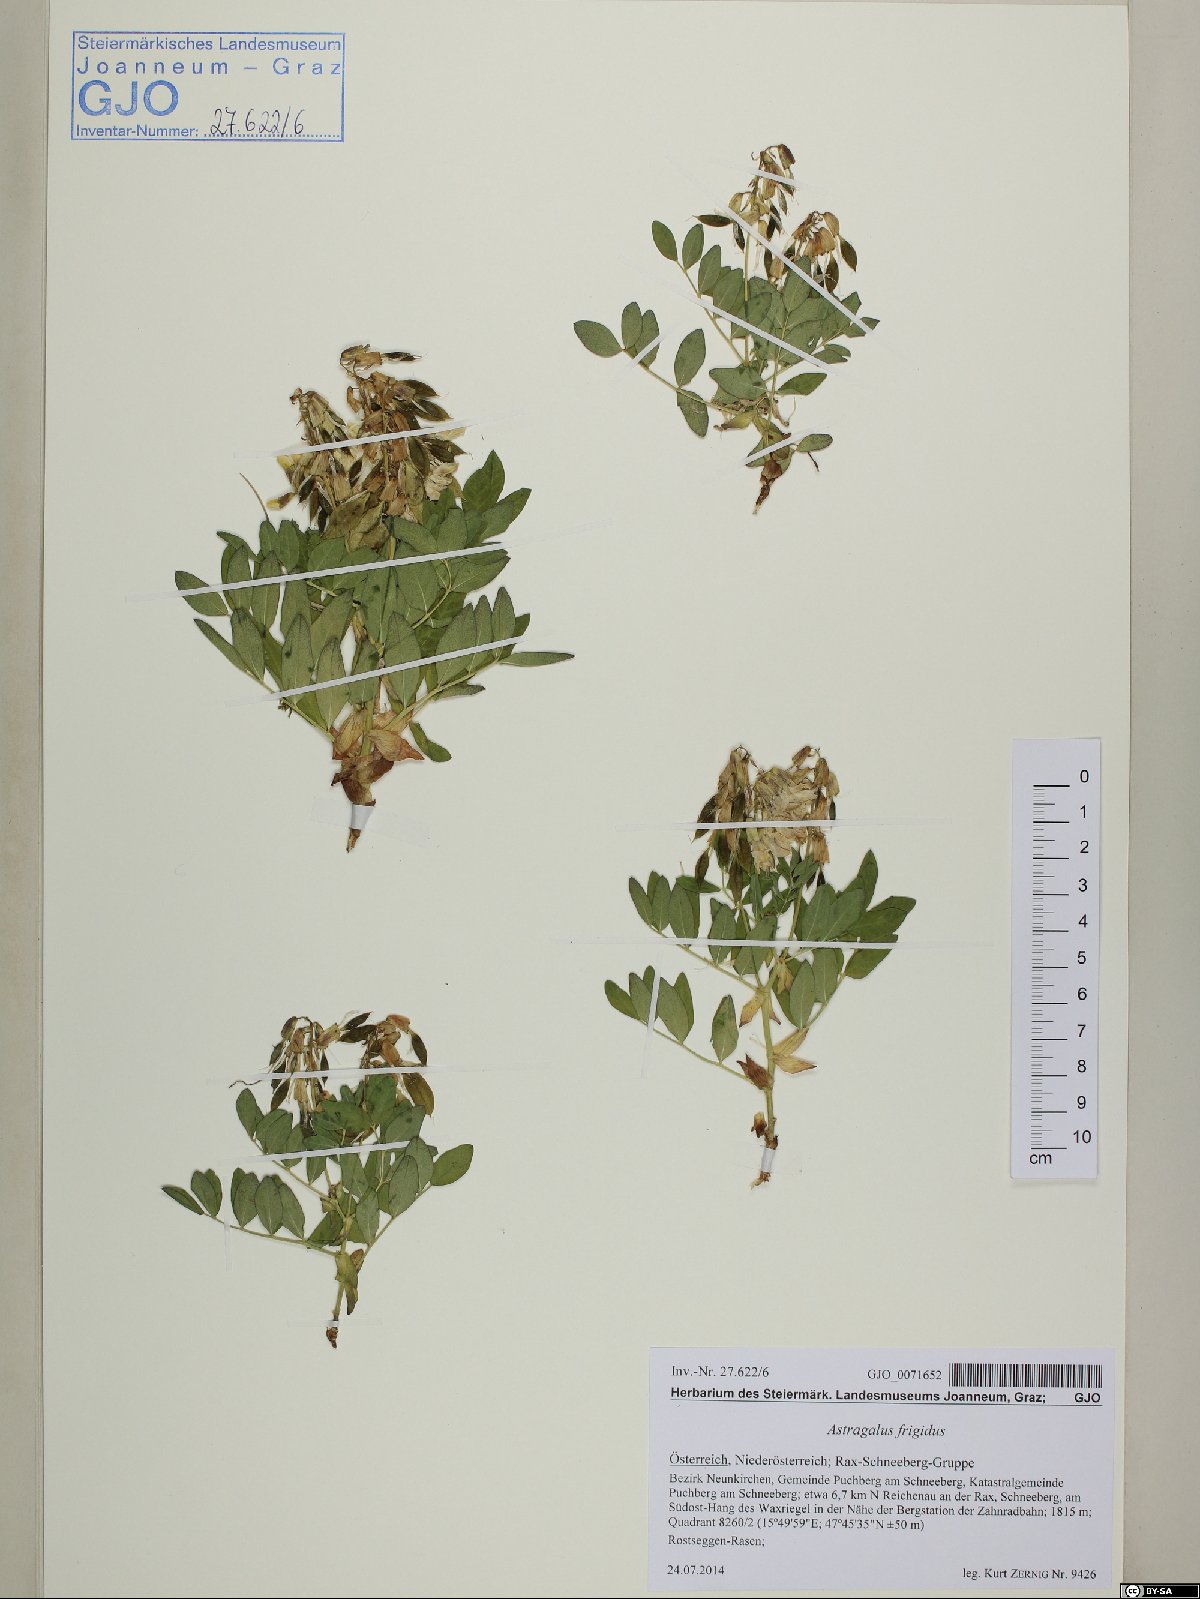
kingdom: Plantae
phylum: Tracheophyta
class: Magnoliopsida
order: Fabales
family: Fabaceae
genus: Astragalus
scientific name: Astragalus frigidus
